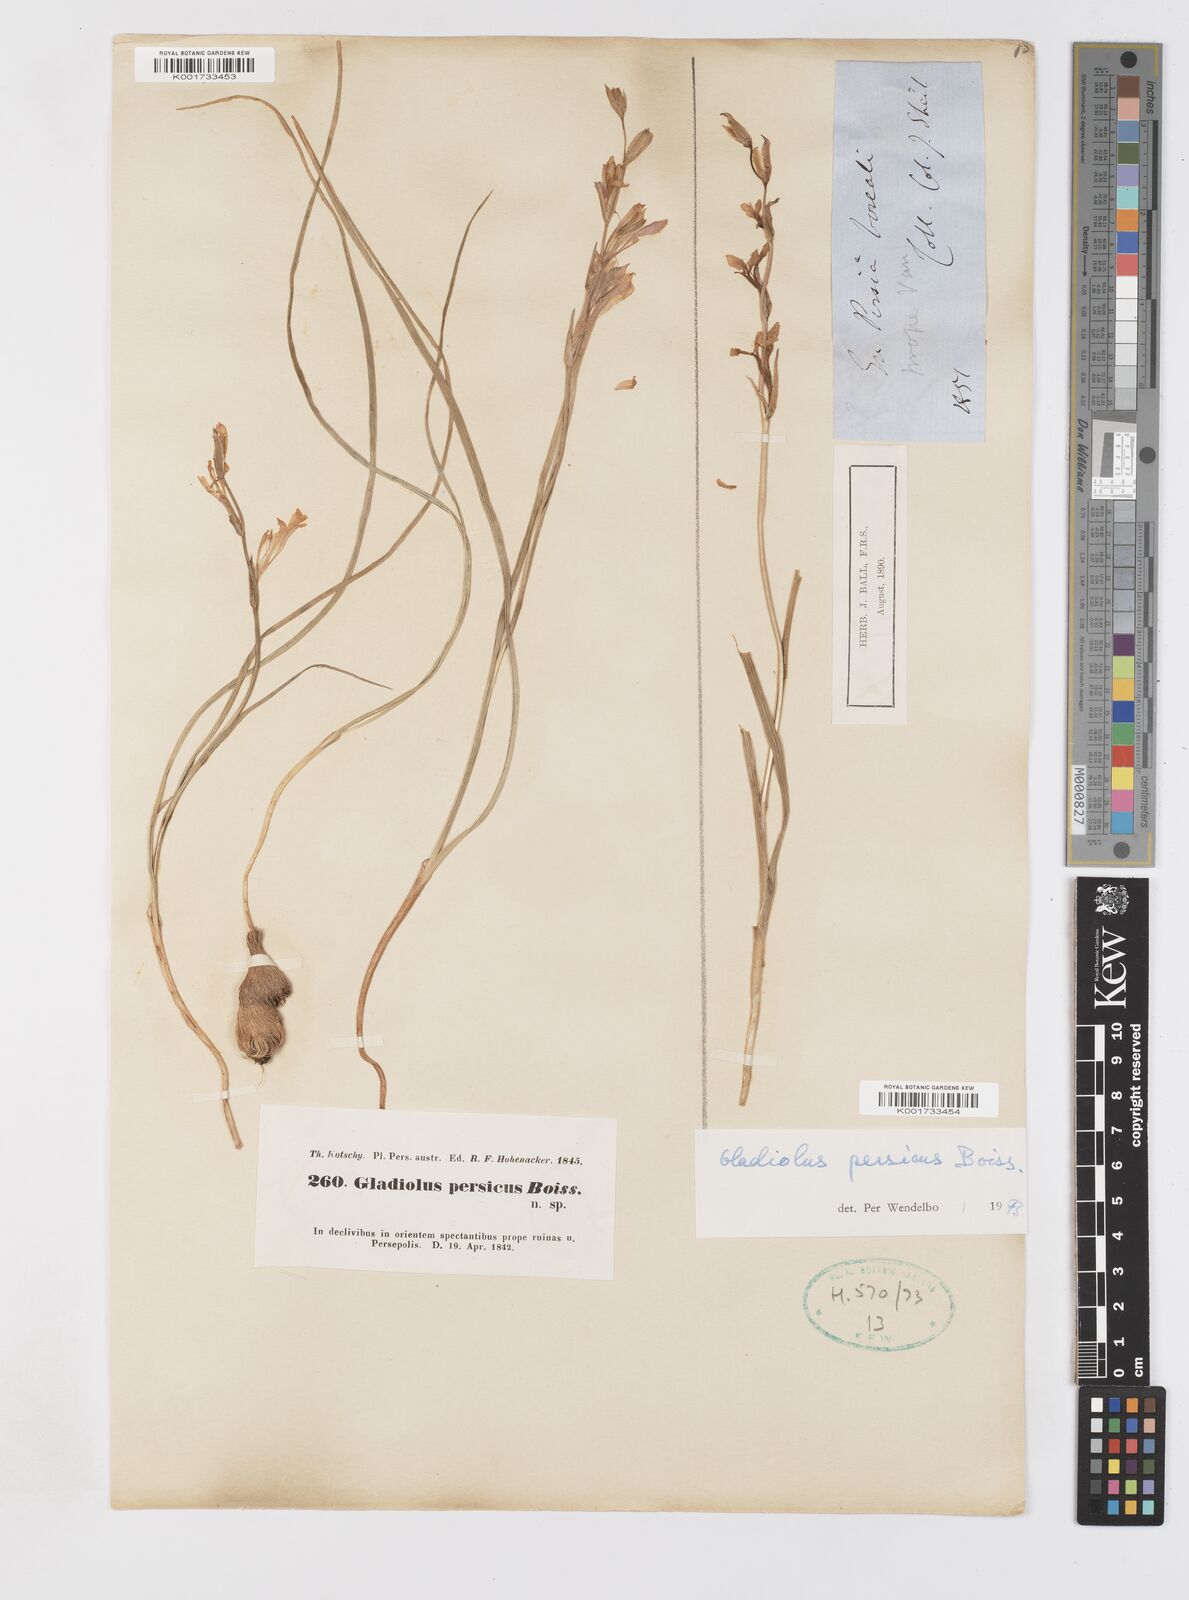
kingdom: Plantae
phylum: Tracheophyta
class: Liliopsida
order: Asparagales
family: Iridaceae
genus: Gladiolus
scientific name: Gladiolus persicus
